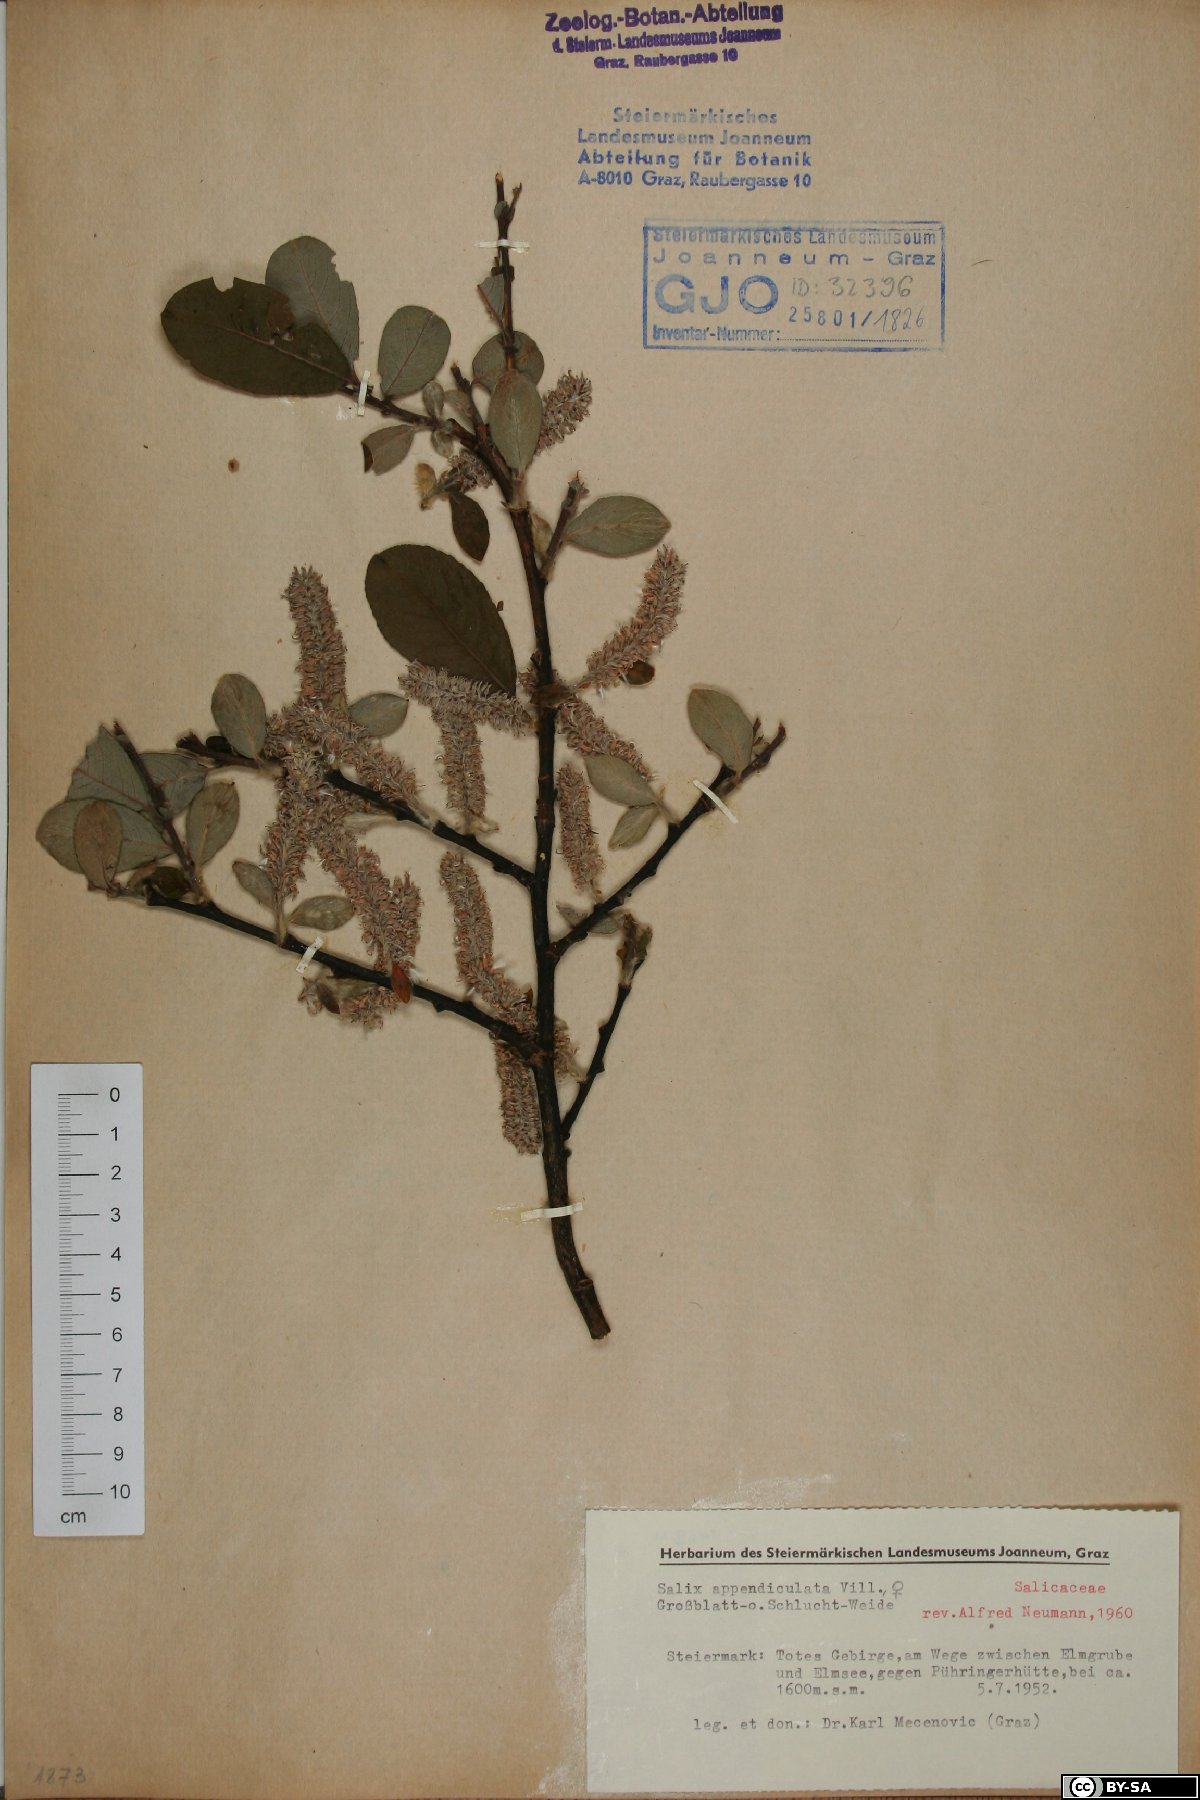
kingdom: Plantae
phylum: Tracheophyta
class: Magnoliopsida
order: Malpighiales
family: Salicaceae
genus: Salix
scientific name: Salix appendiculata
